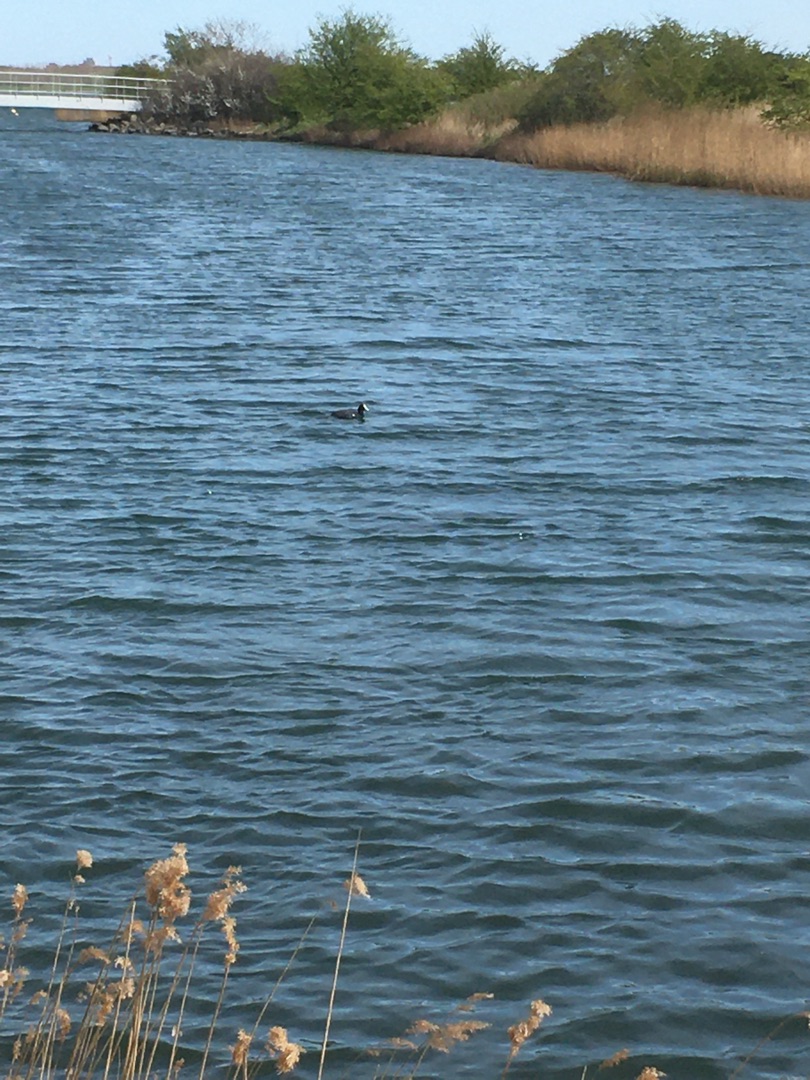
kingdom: Animalia
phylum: Chordata
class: Aves
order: Gruiformes
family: Rallidae
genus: Fulica
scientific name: Fulica atra
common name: Blishøne
